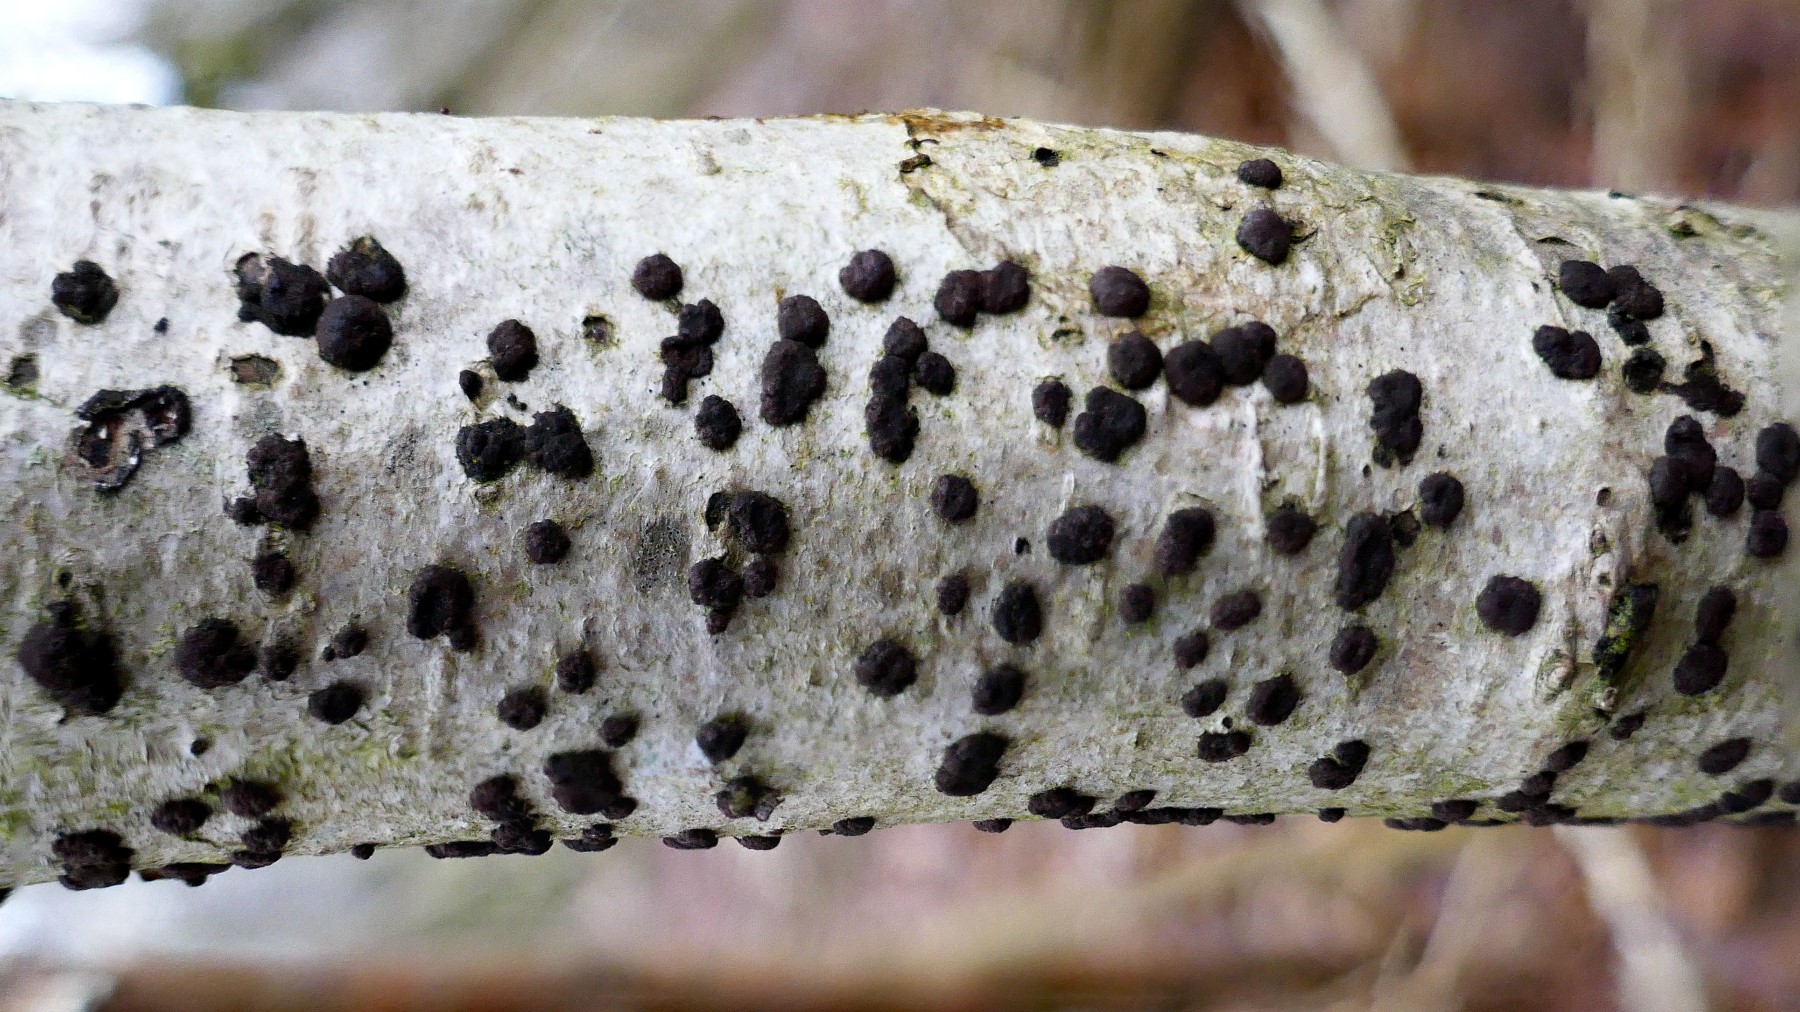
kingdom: Fungi
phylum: Ascomycota
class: Sordariomycetes
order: Xylariales
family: Hypoxylaceae
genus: Hypoxylon
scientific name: Hypoxylon fuscum
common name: kegleformet kulbær
